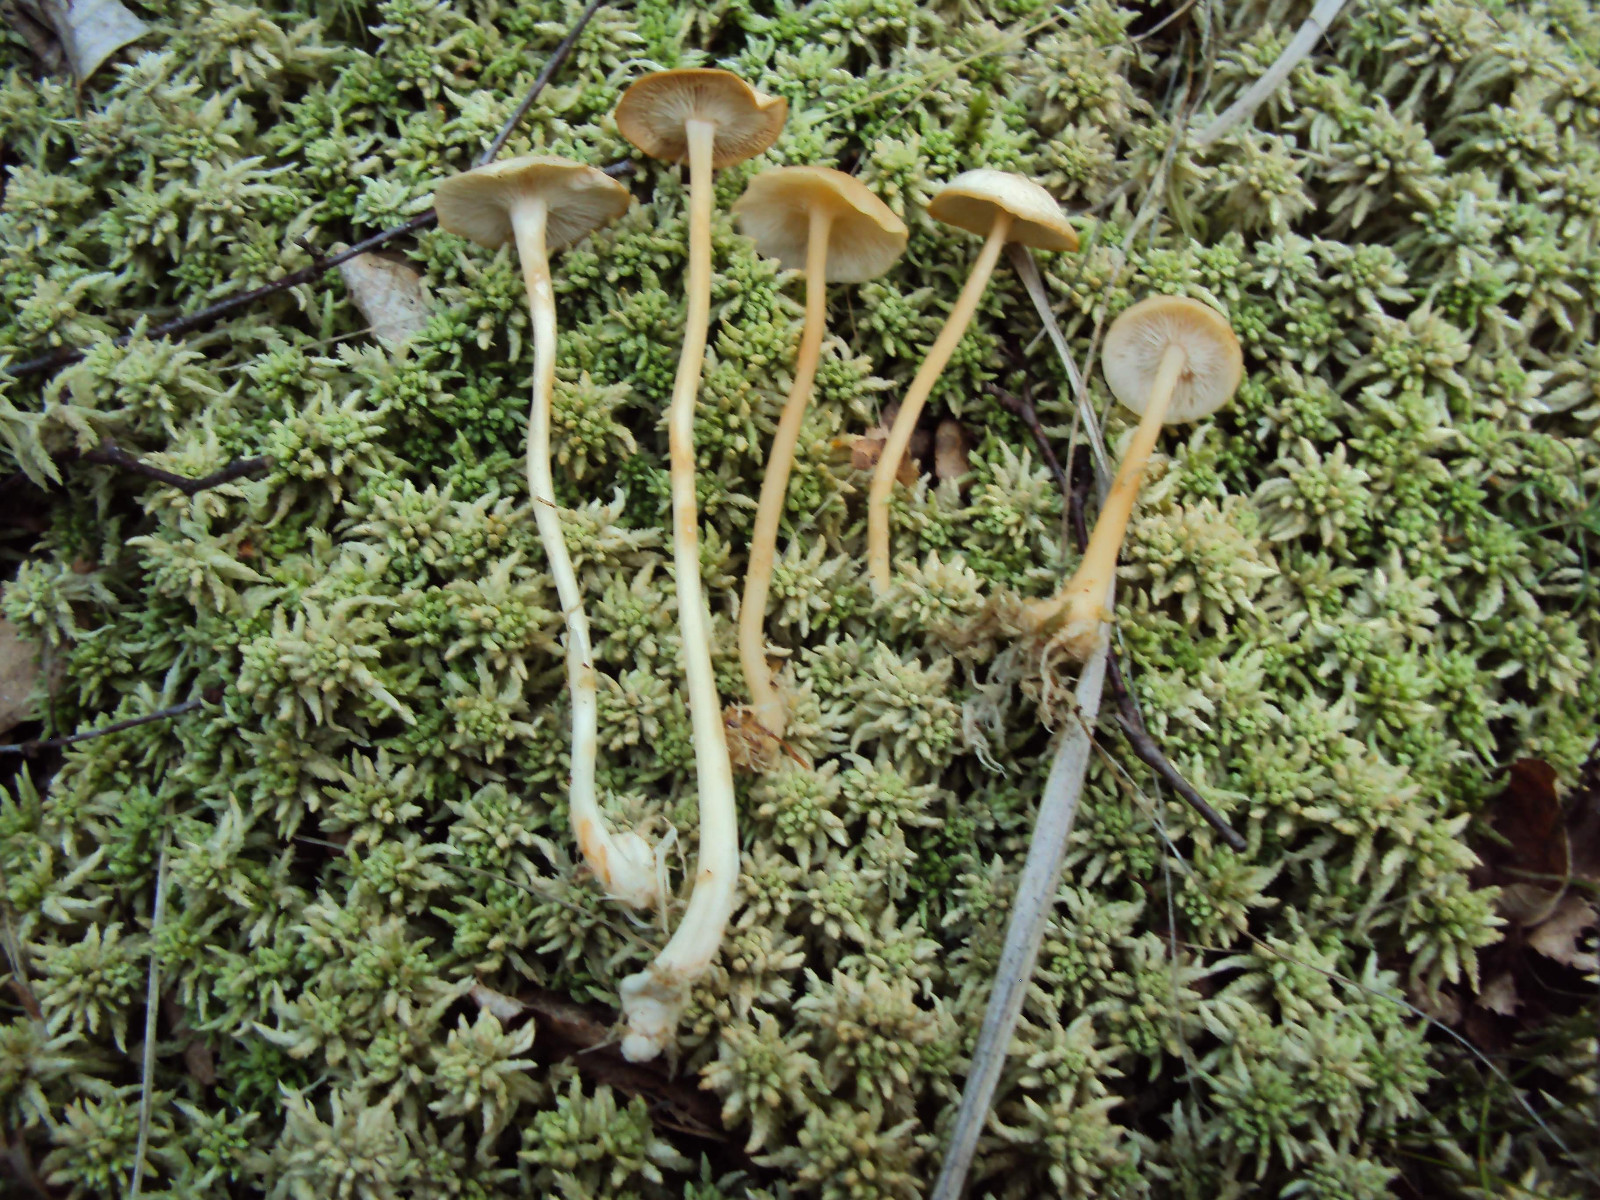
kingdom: Fungi
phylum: Basidiomycota
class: Agaricomycetes
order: Agaricales
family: Omphalotaceae
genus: Gymnopus
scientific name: Gymnopus aquosus
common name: bleg fladhat
